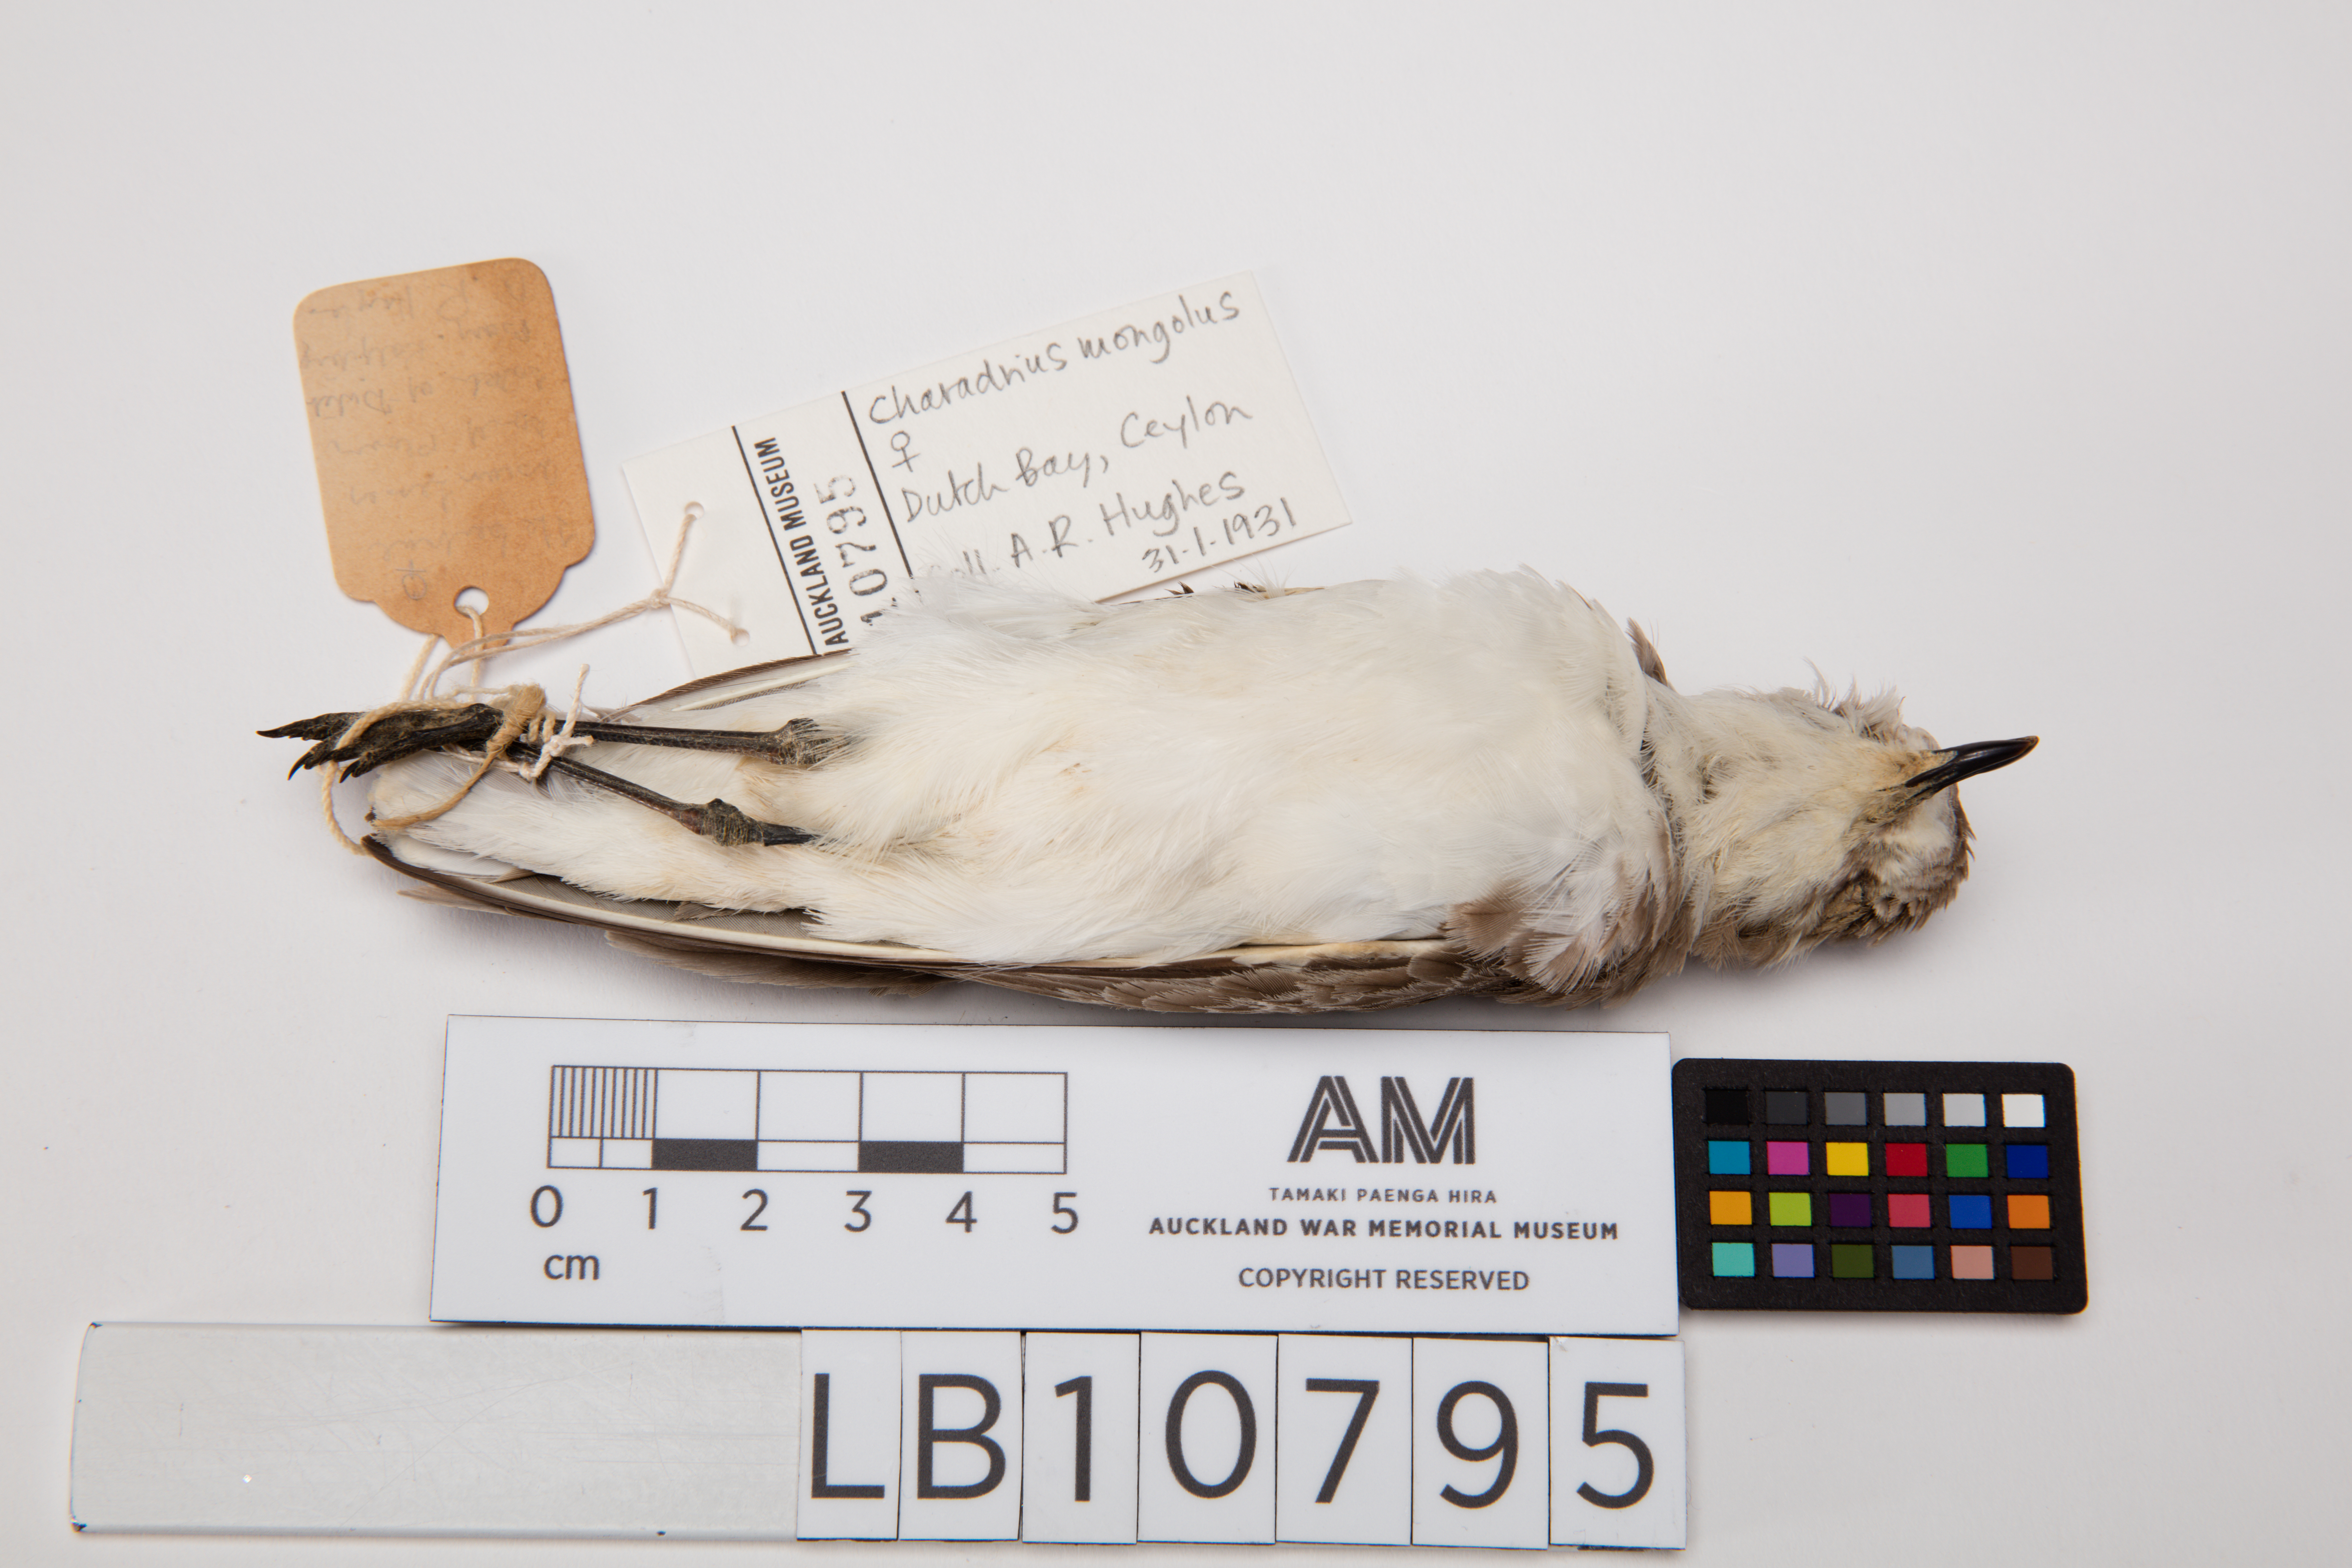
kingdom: Animalia
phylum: Chordata
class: Aves
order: Charadriiformes
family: Charadriidae
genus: Charadrius
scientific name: Charadrius mongolus
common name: Lesser sand-plover
